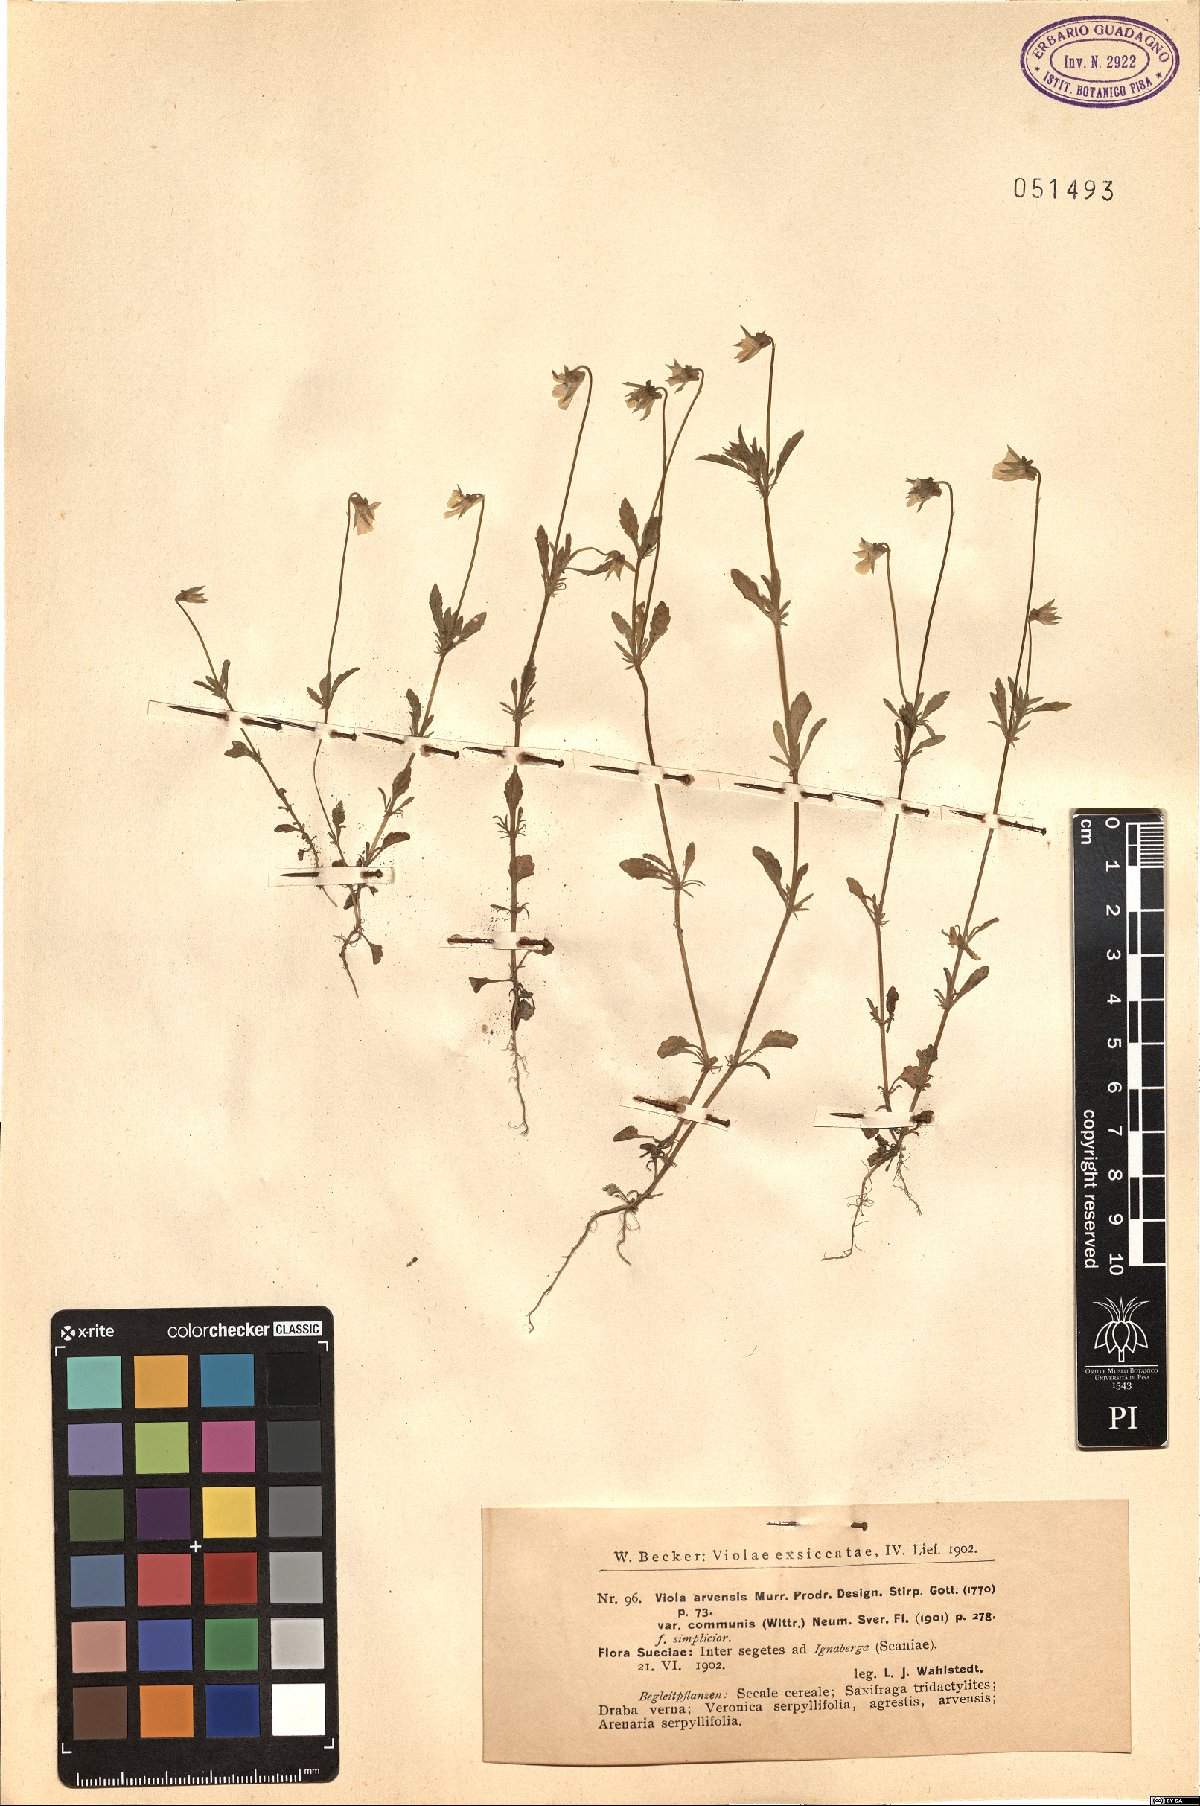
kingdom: Plantae
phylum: Tracheophyta
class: Magnoliopsida
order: Malpighiales
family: Violaceae
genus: Viola
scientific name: Viola arvensis
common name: Field pansy
